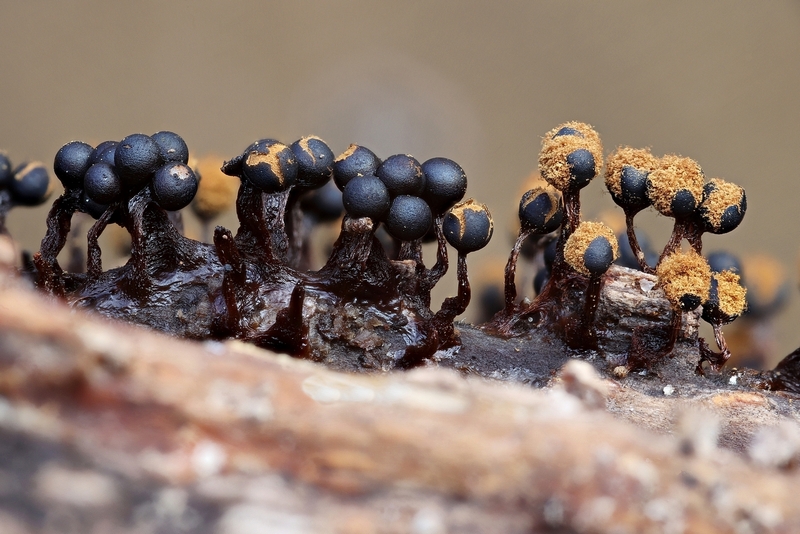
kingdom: Protozoa
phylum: Mycetozoa
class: Myxomycetes
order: Trichiales
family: Trichiaceae
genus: Metatrichia
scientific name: Metatrichia floriformis
